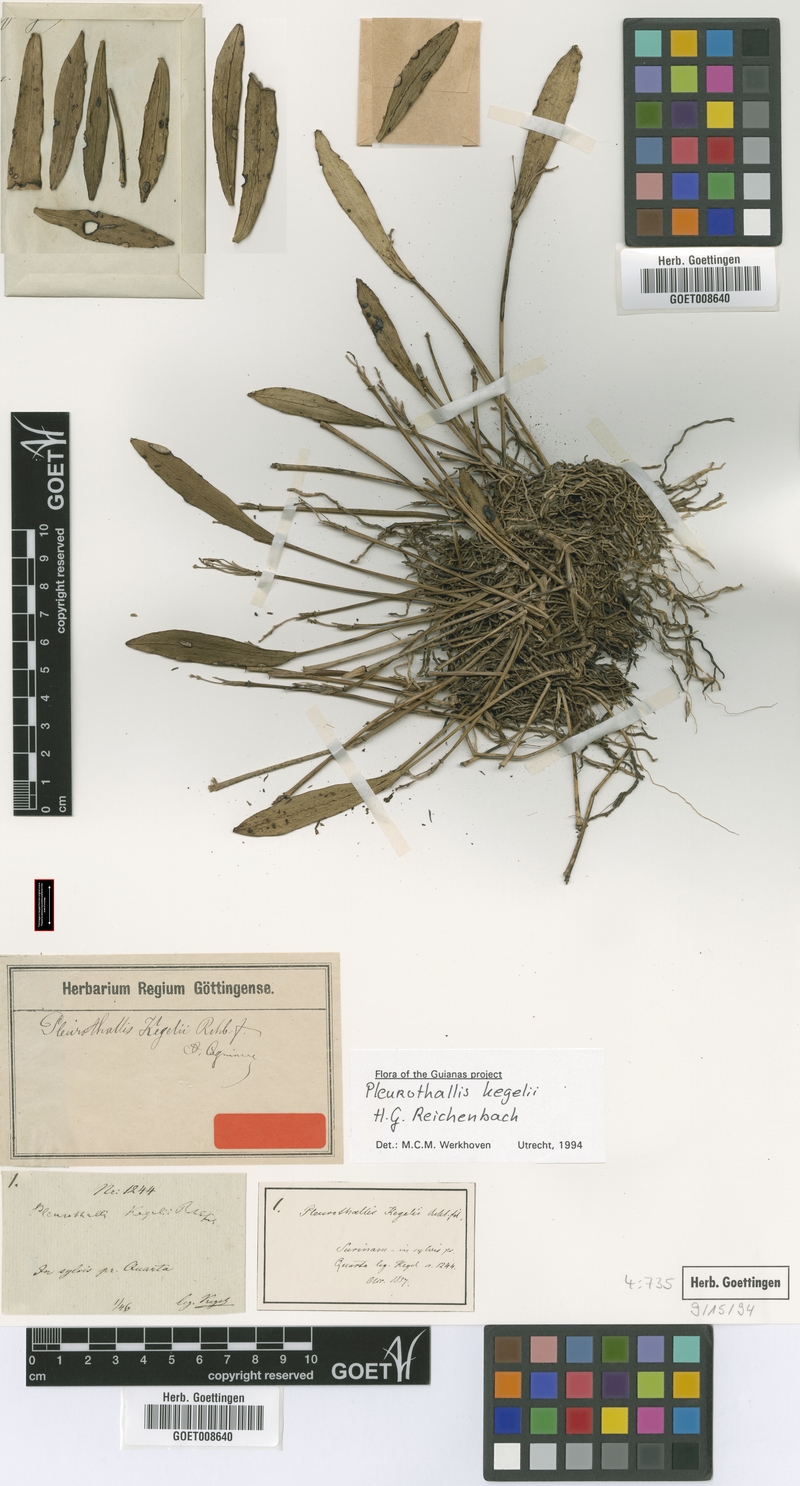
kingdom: Plantae
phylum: Tracheophyta
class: Liliopsida
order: Asparagales
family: Orchidaceae
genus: Acianthera
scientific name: Acianthera kegelii
